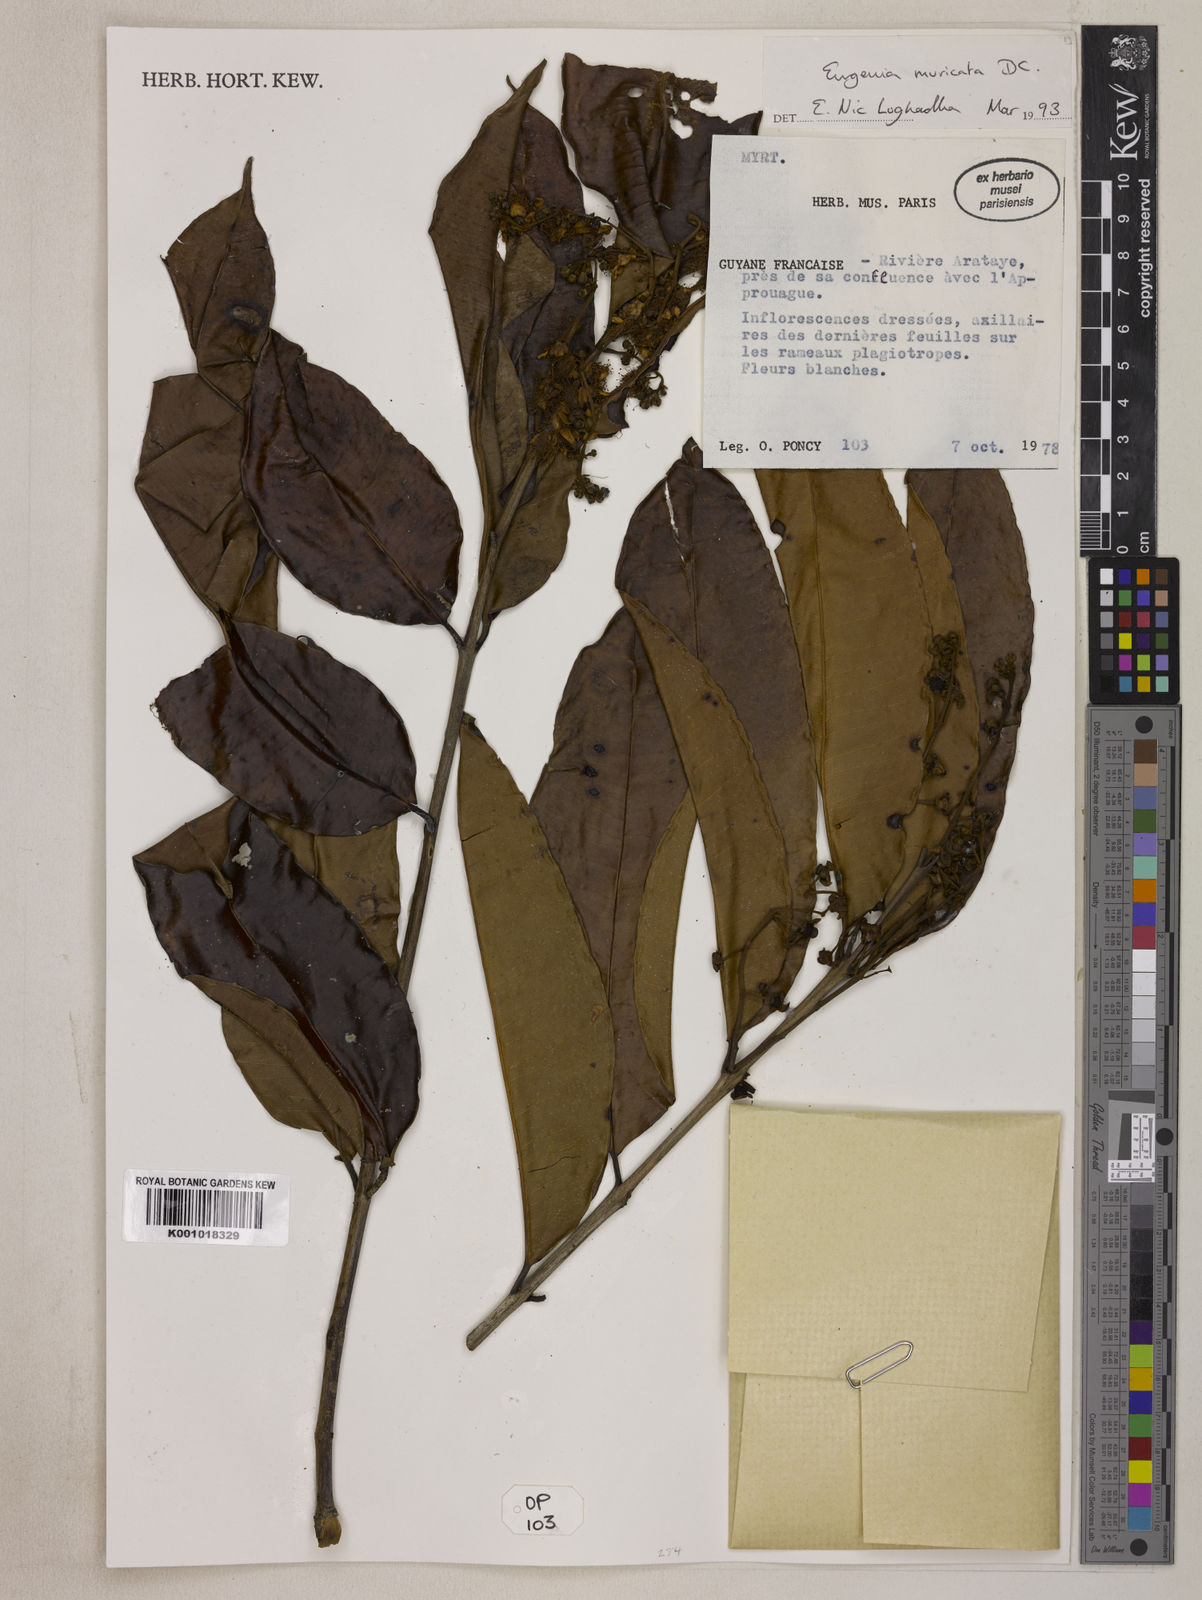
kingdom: Plantae
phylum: Tracheophyta
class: Magnoliopsida
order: Myrtales
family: Myrtaceae
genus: Eugenia
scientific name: Eugenia muricata
